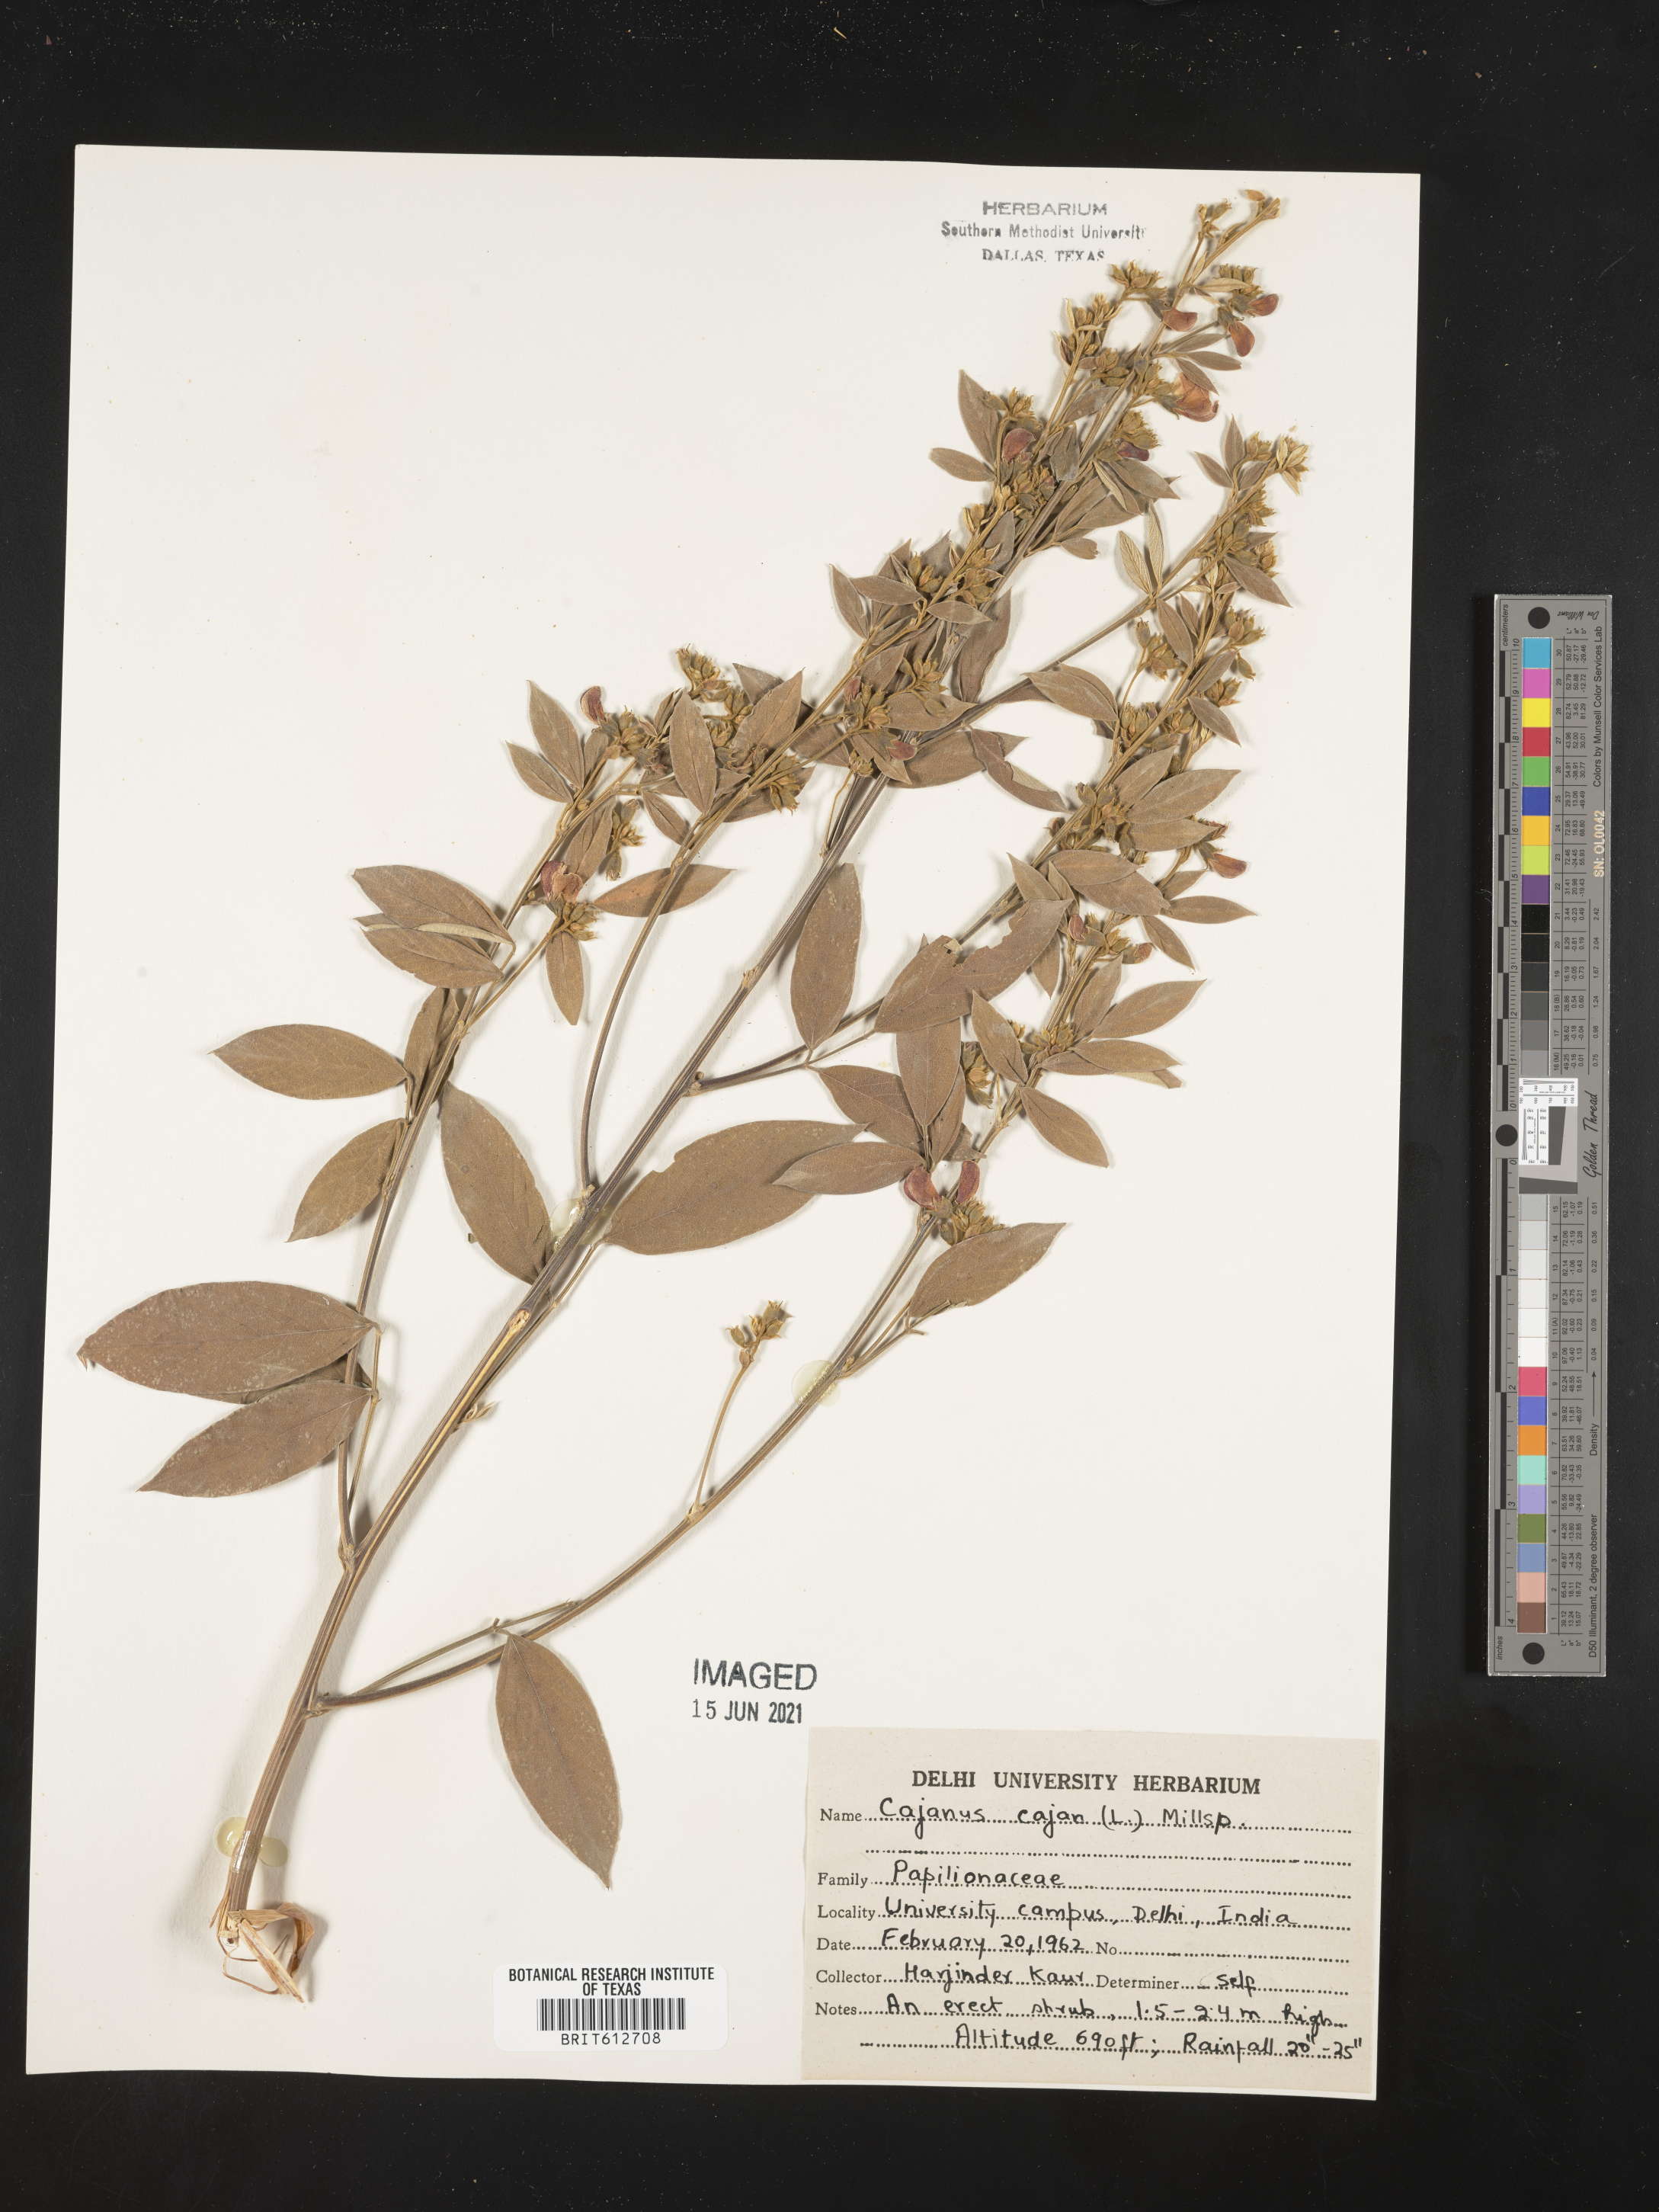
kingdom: Plantae
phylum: Tracheophyta
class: Magnoliopsida
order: Fabales
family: Fabaceae
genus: Cajanus
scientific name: Cajanus cajan
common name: Pigeonpea
